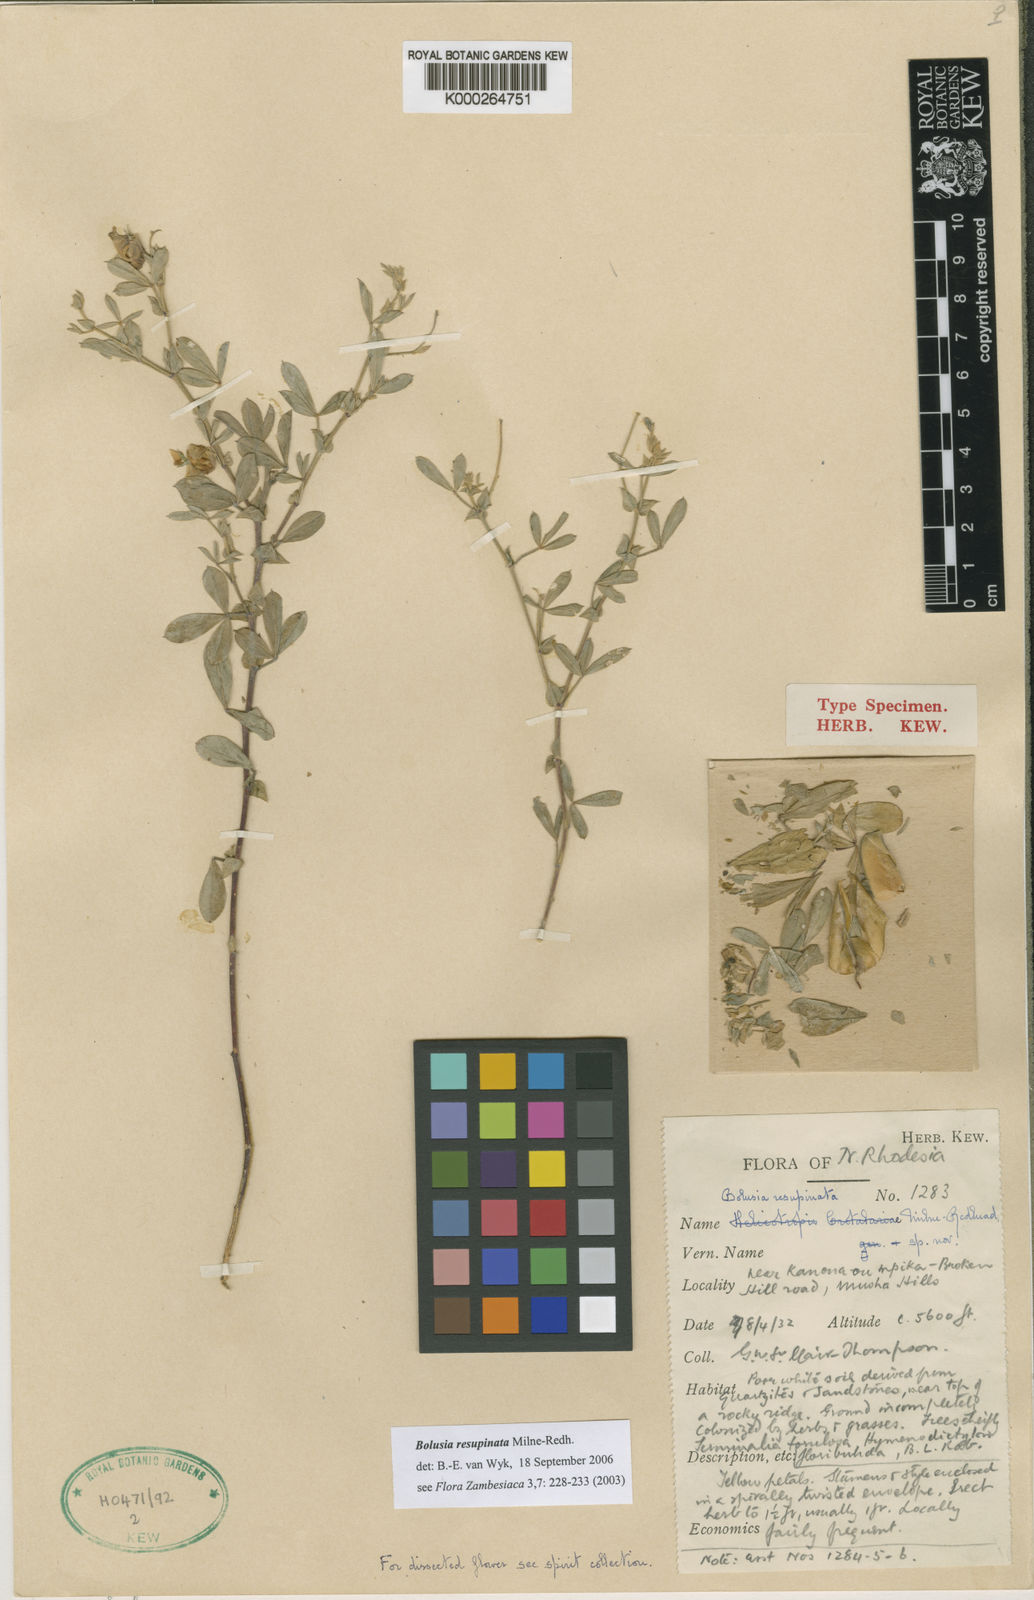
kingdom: Plantae
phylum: Tracheophyta
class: Magnoliopsida
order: Fabales
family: Fabaceae
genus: Bolusia
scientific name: Bolusia resupinata
